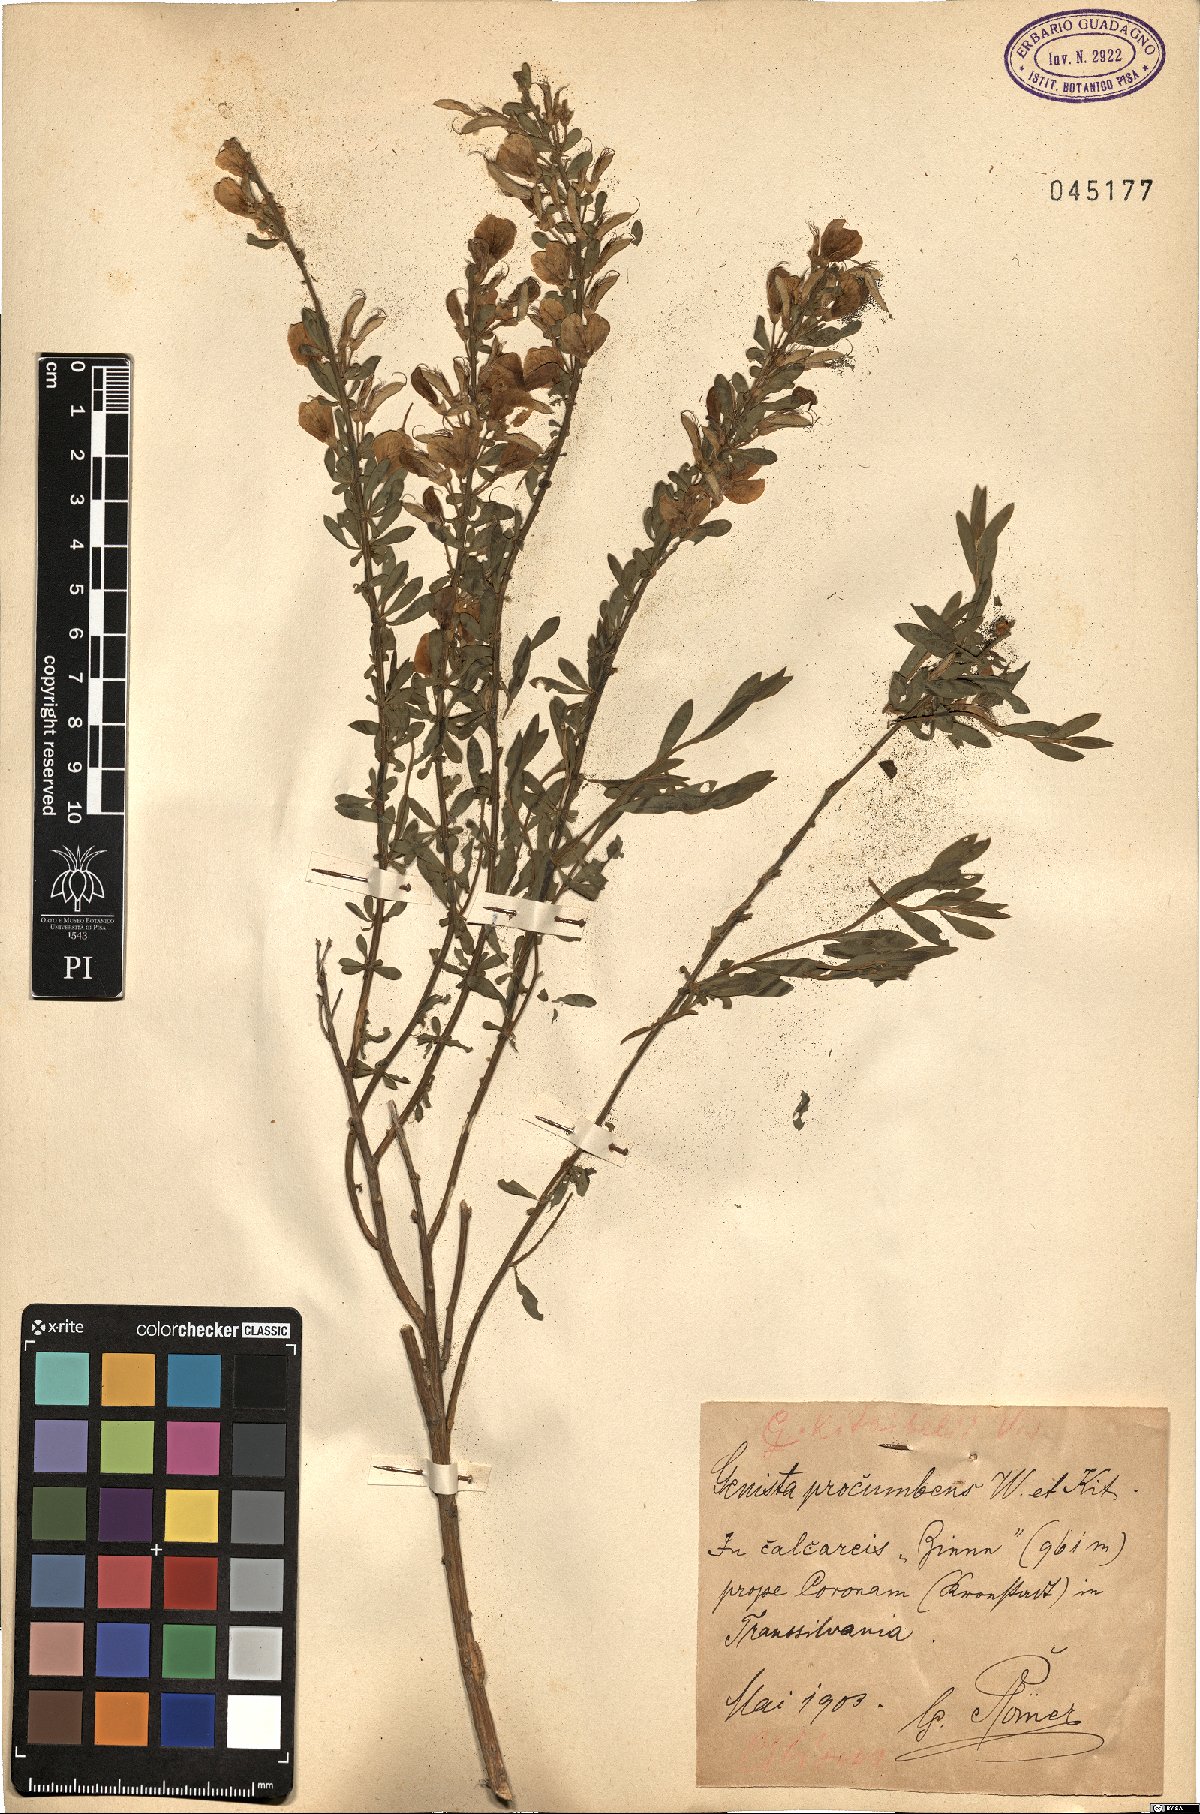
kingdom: Plantae
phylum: Tracheophyta
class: Magnoliopsida
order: Fabales
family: Fabaceae
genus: Cytisus
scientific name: Cytisus procumbens
